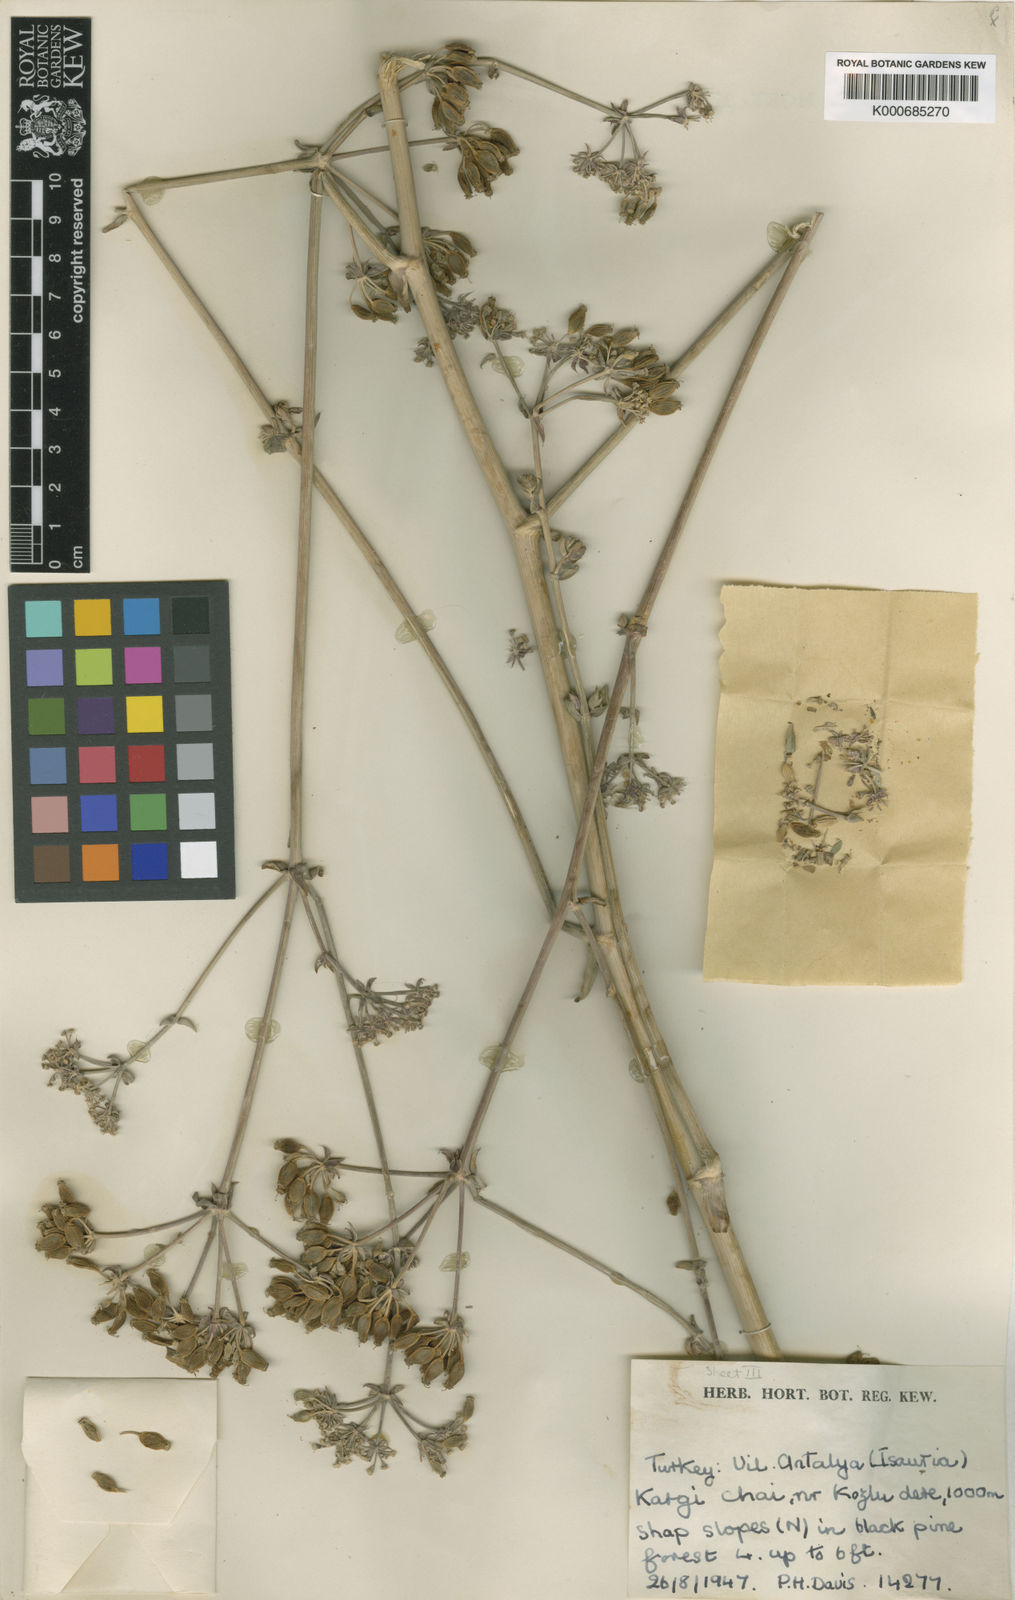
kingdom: Plantae
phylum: Tracheophyta
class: Magnoliopsida
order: Apiales
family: Apiaceae
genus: Ferulago
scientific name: Ferulago isaurica
